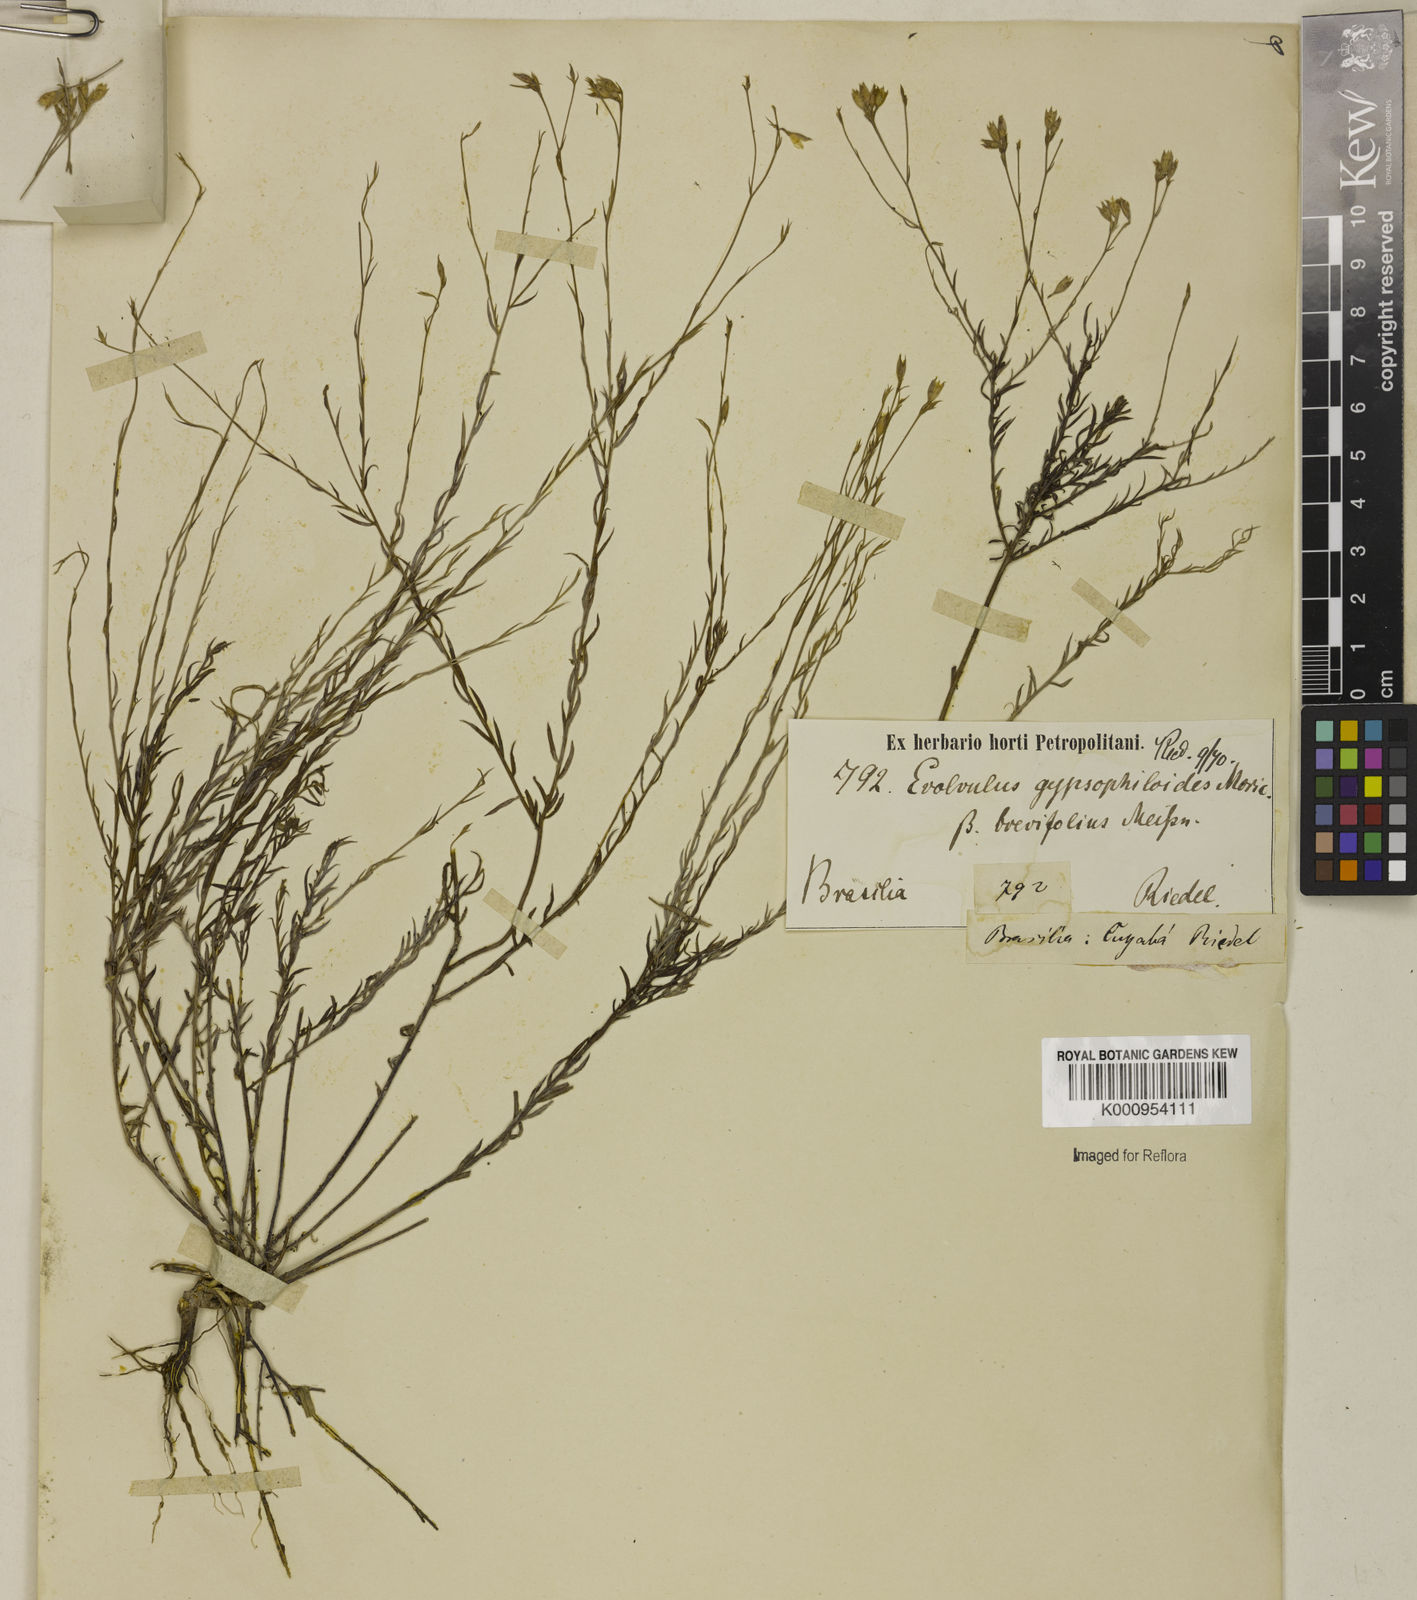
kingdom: Plantae
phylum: Tracheophyta
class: Magnoliopsida
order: Solanales
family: Convolvulaceae
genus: Evolvulus
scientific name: Evolvulus gypsophiloides
